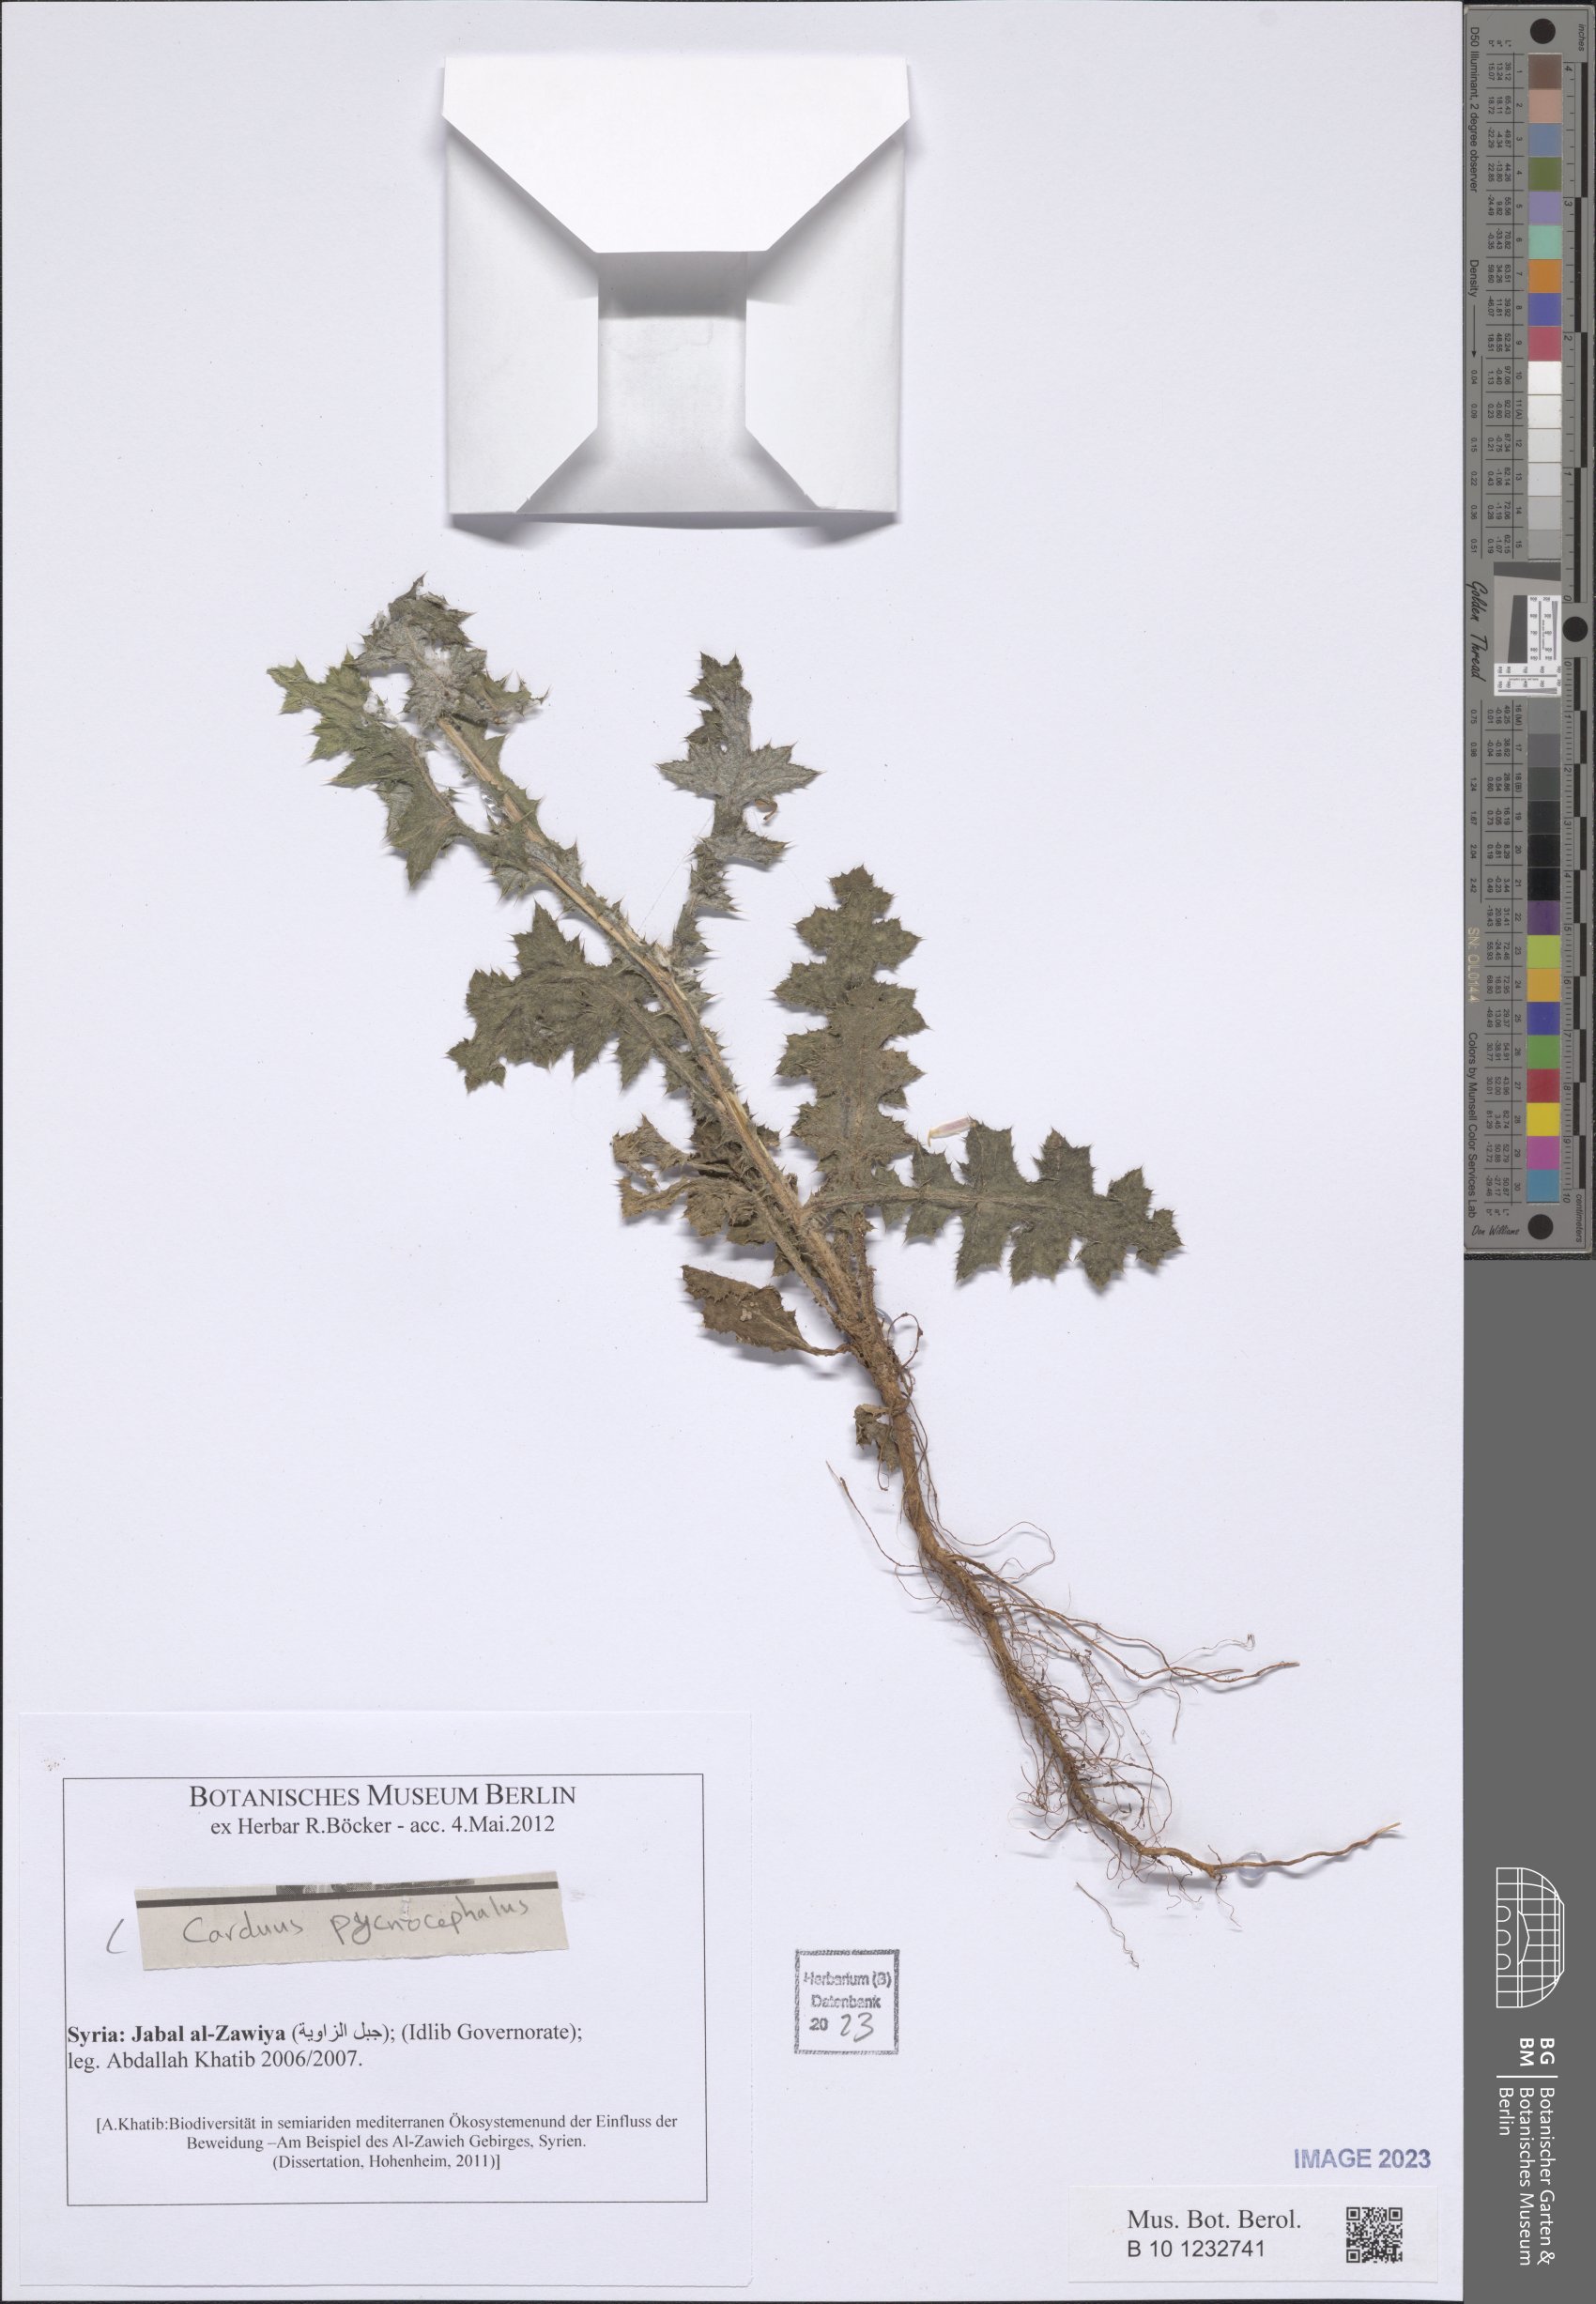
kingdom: Plantae
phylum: Tracheophyta
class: Magnoliopsida
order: Asterales
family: Asteraceae
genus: Carduus
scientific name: Carduus pycnocephalus
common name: Plymouth thistle
